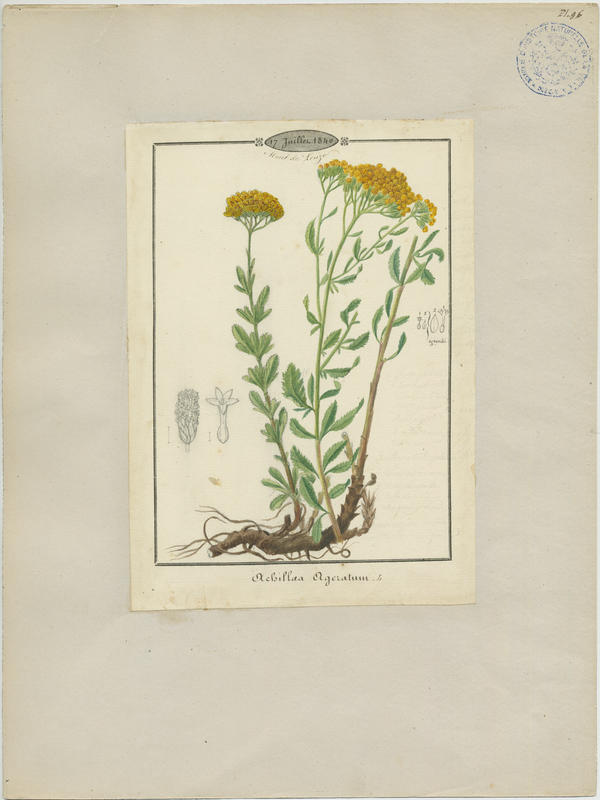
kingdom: Plantae
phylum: Tracheophyta
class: Magnoliopsida
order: Asterales
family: Asteraceae
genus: Achillea
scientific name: Achillea ageratum
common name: Sweet-nancy
